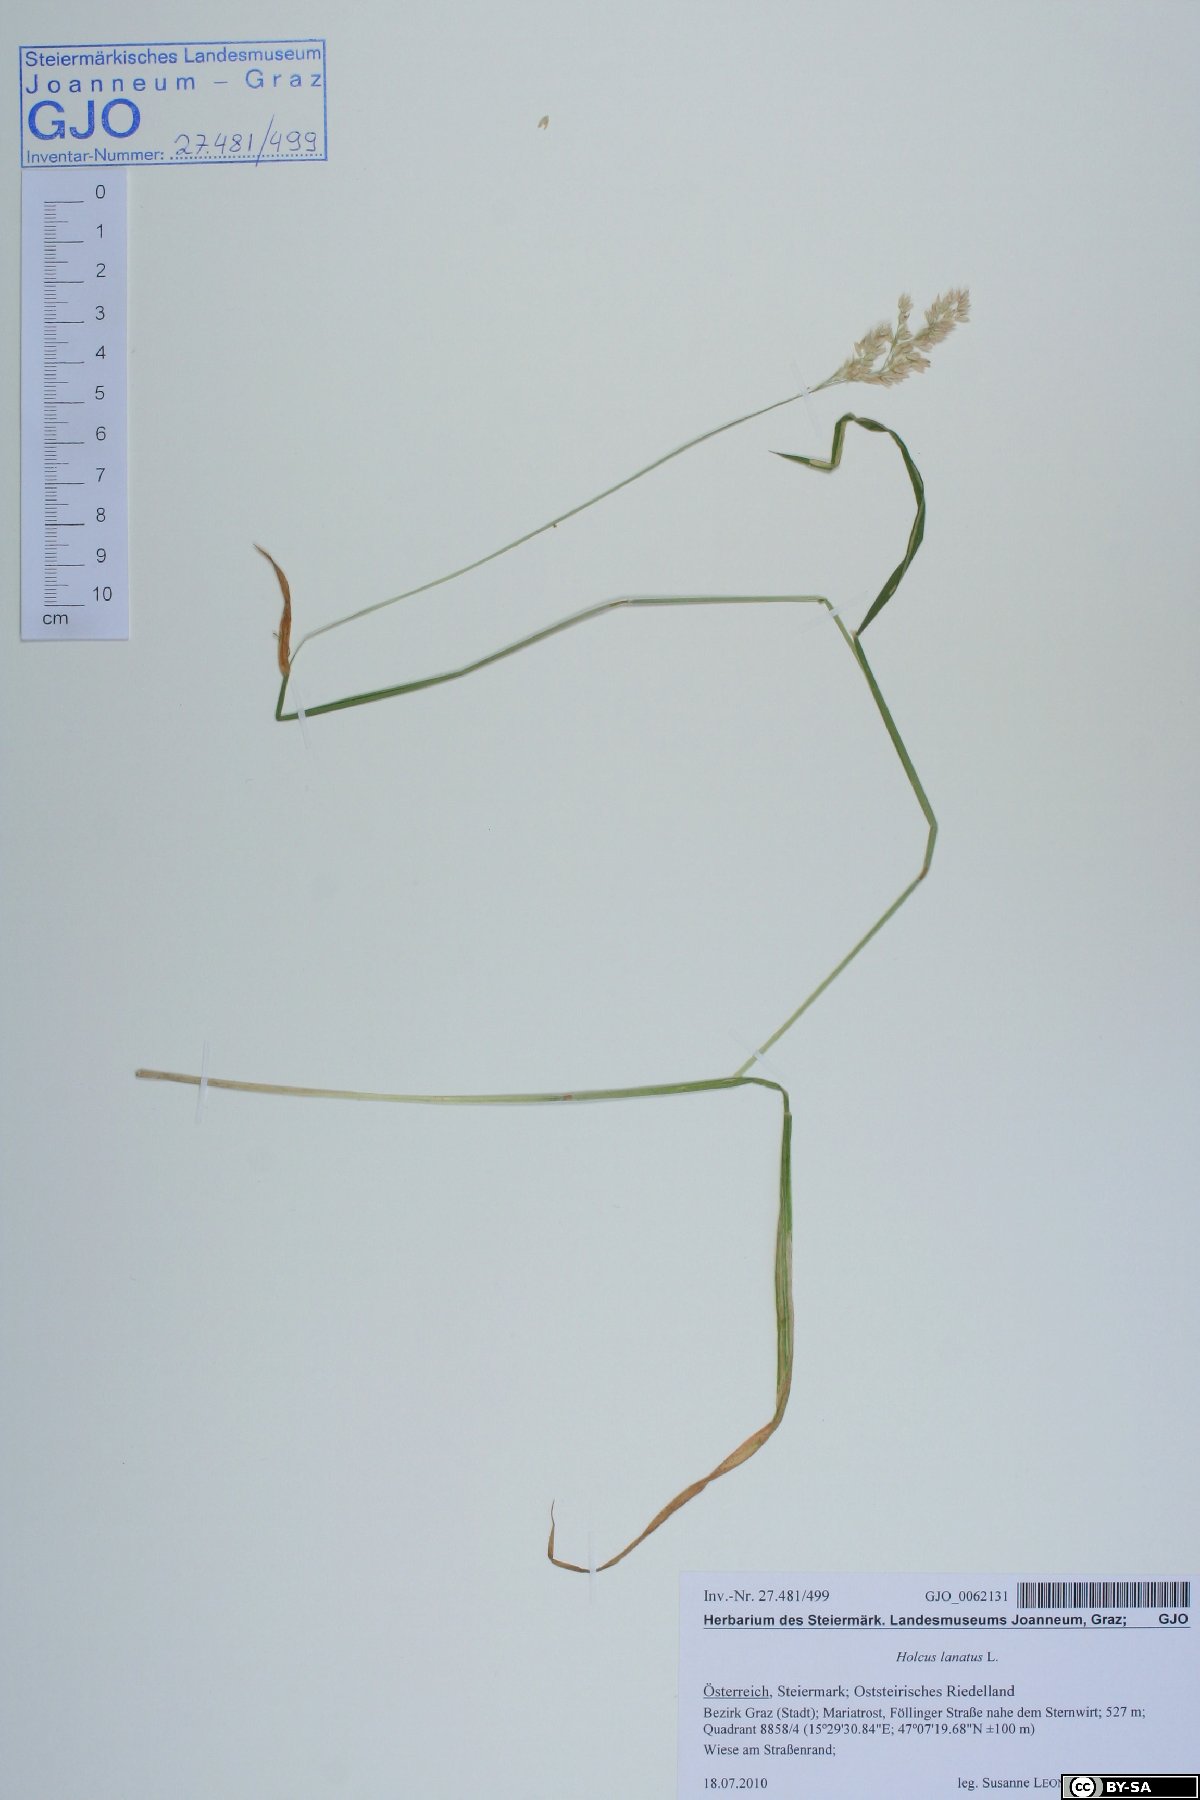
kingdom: Plantae
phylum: Tracheophyta
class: Liliopsida
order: Poales
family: Poaceae
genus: Holcus
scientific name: Holcus lanatus
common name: Yorkshire-fog
